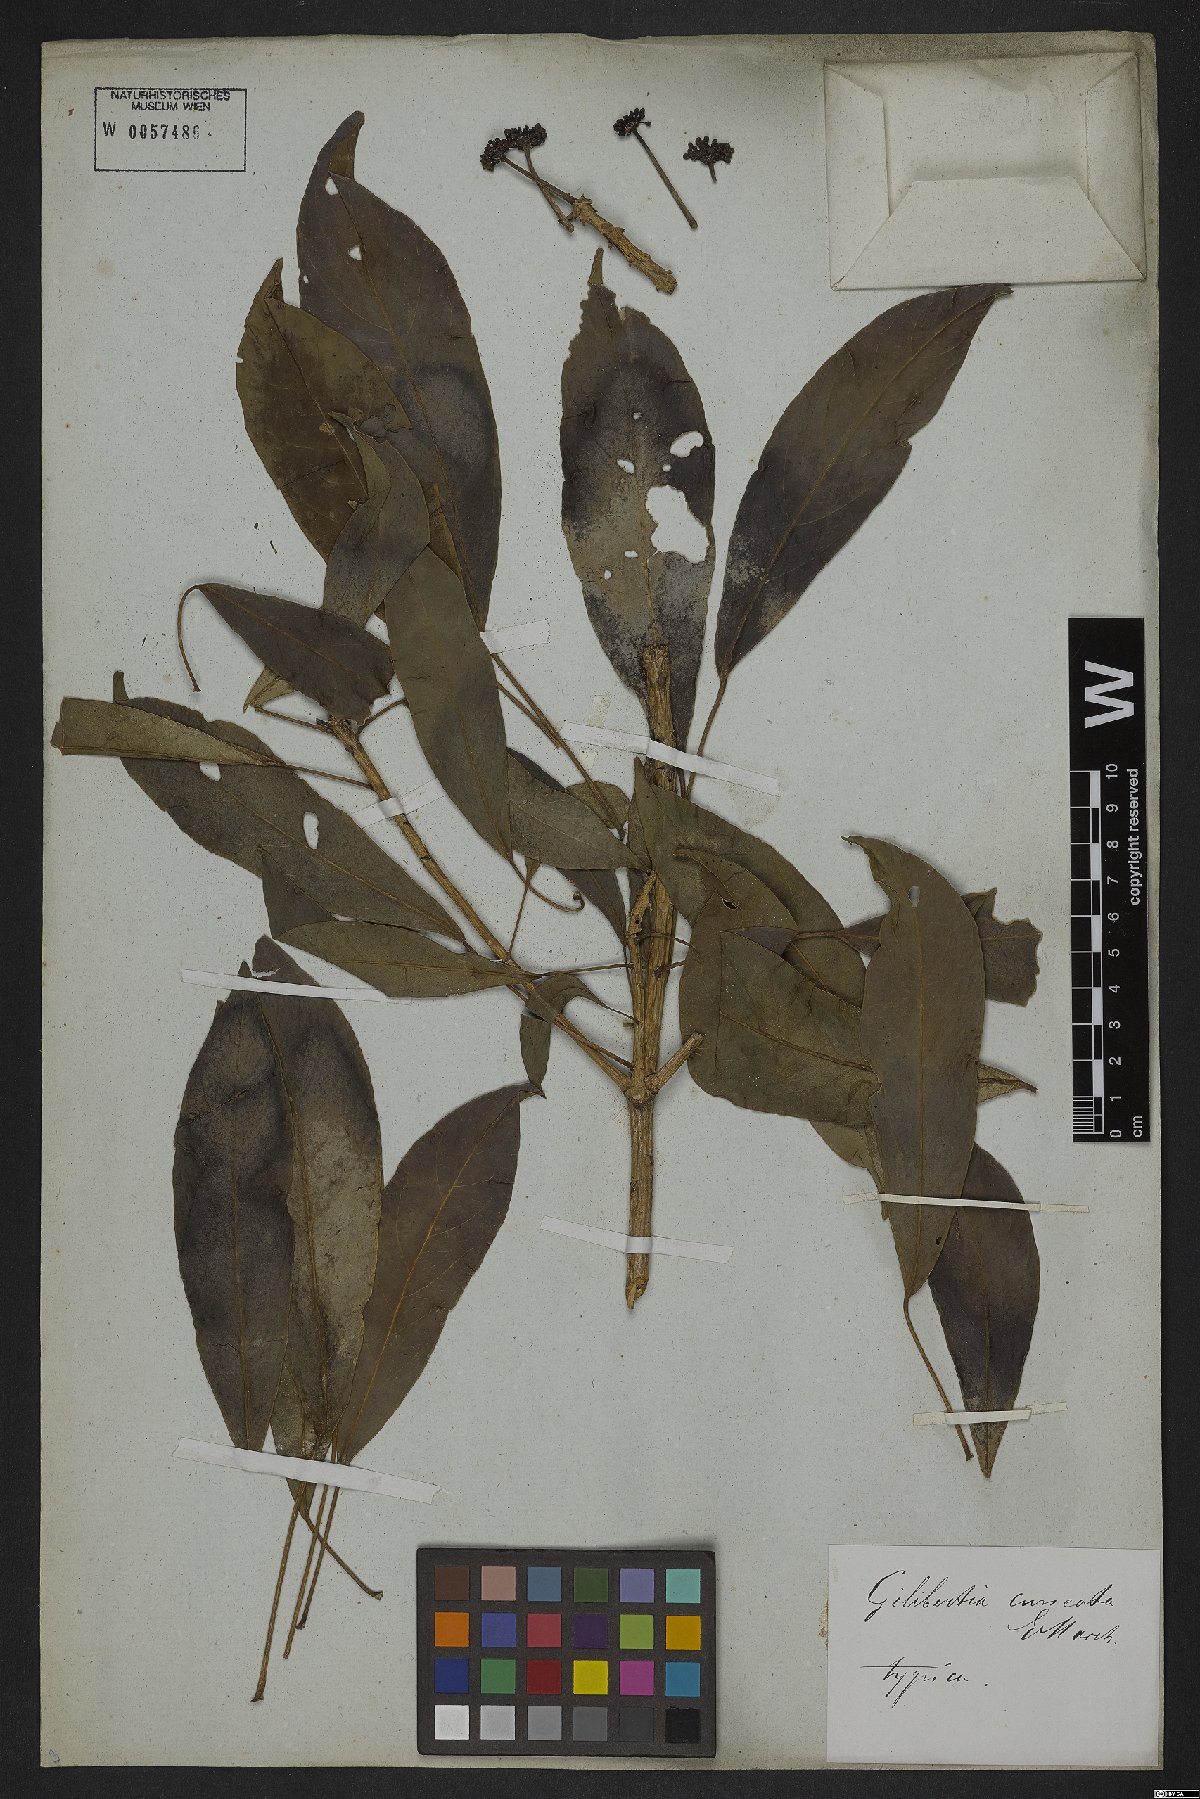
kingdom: Plantae
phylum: Tracheophyta
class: Magnoliopsida
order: Apiales
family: Araliaceae
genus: Dendropanax
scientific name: Dendropanax cuneatus
